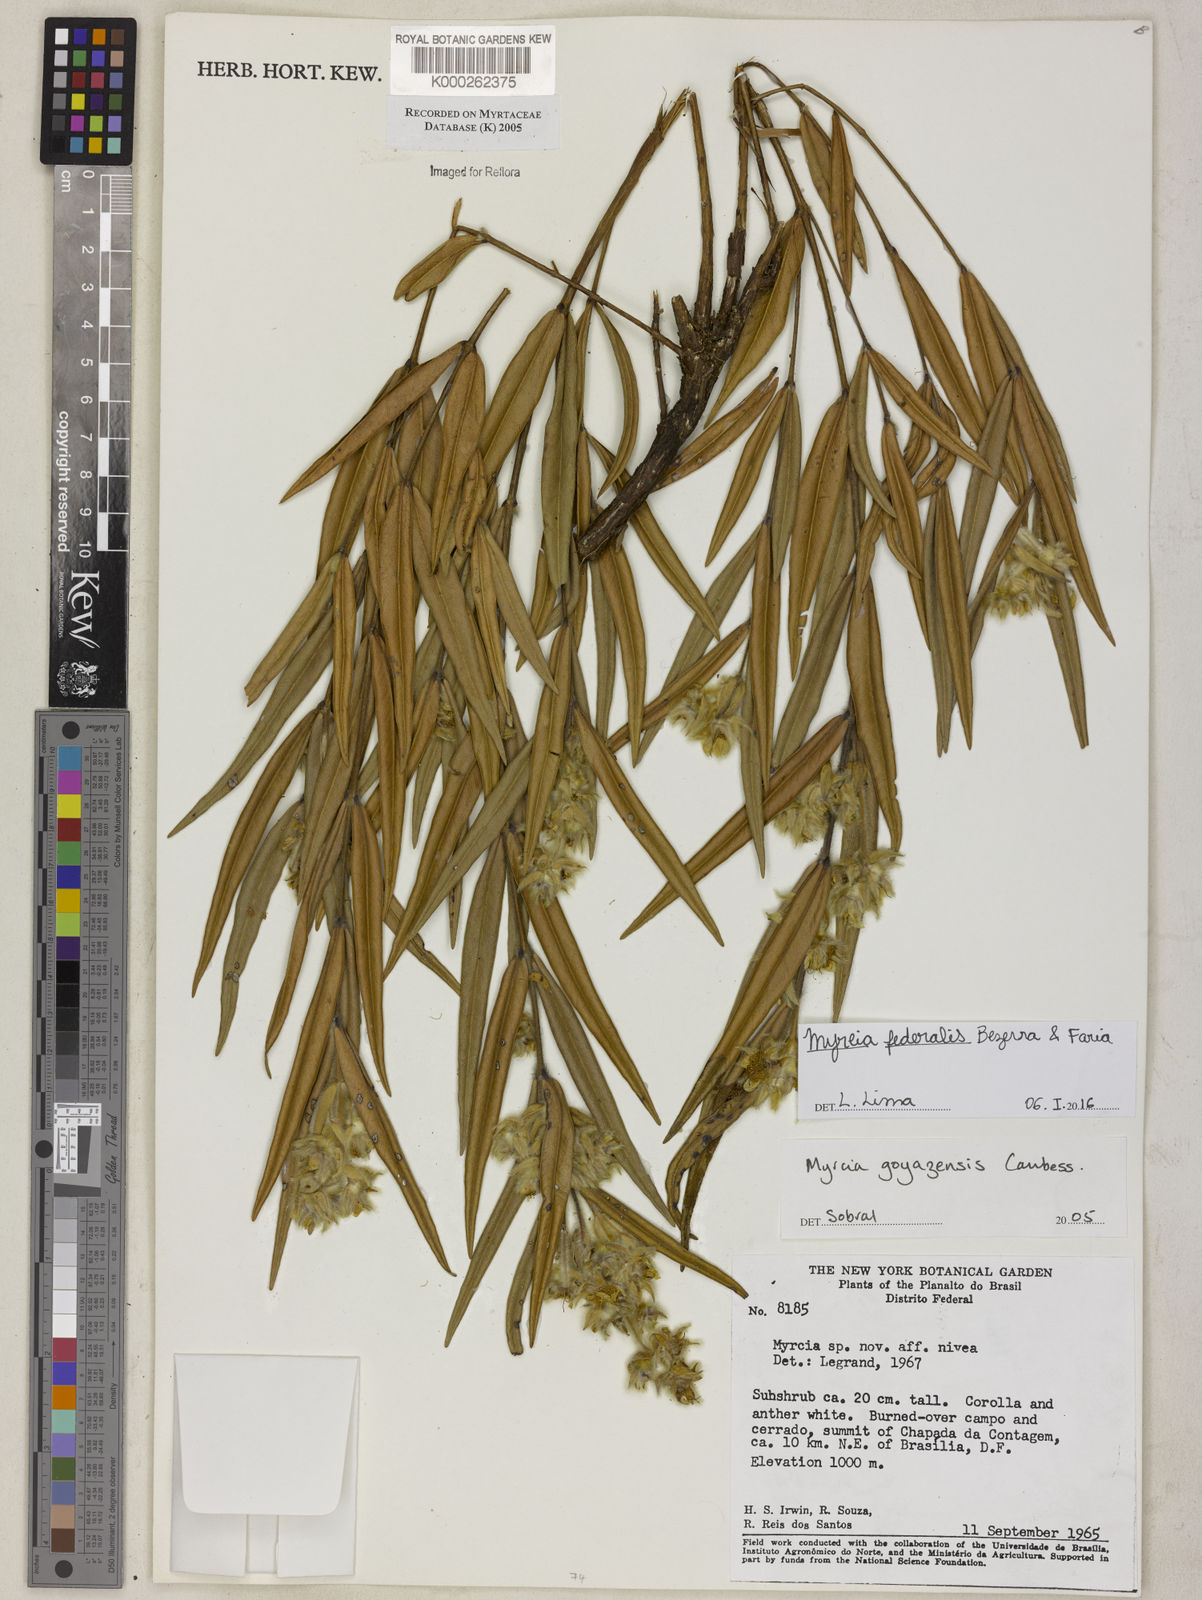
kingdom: Plantae
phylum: Tracheophyta
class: Magnoliopsida
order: Myrtales
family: Myrtaceae
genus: Myrcia
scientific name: Myrcia nivea
